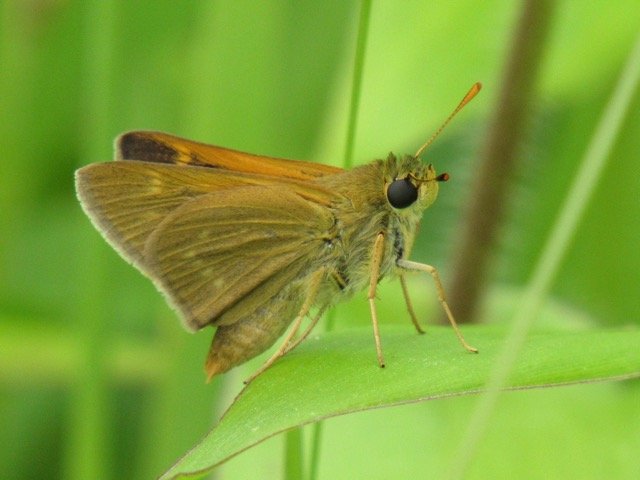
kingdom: Animalia
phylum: Arthropoda
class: Insecta
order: Lepidoptera
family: Hesperiidae
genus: Polites
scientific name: Polites themistocles
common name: Tawny-edged Skipper
